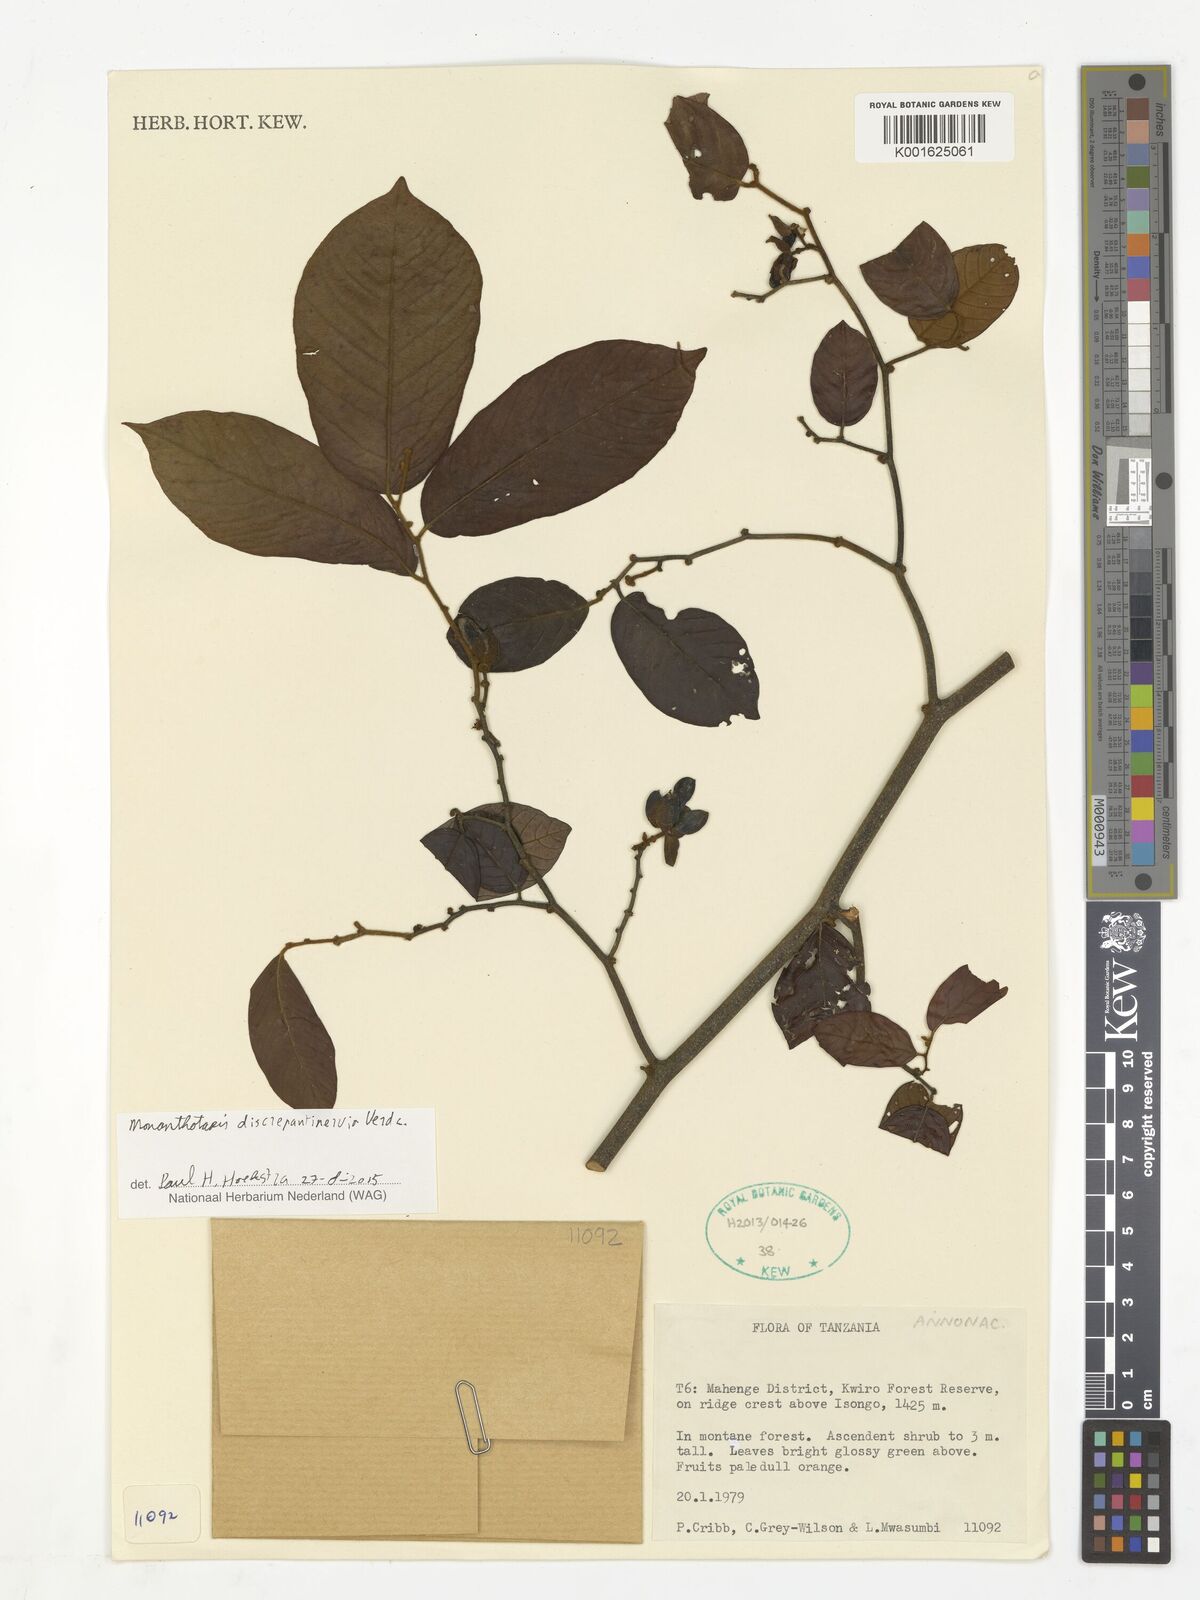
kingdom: Plantae
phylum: Tracheophyta
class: Magnoliopsida
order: Magnoliales
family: Annonaceae
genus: Monanthotaxis
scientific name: Monanthotaxis discrepantinervia
